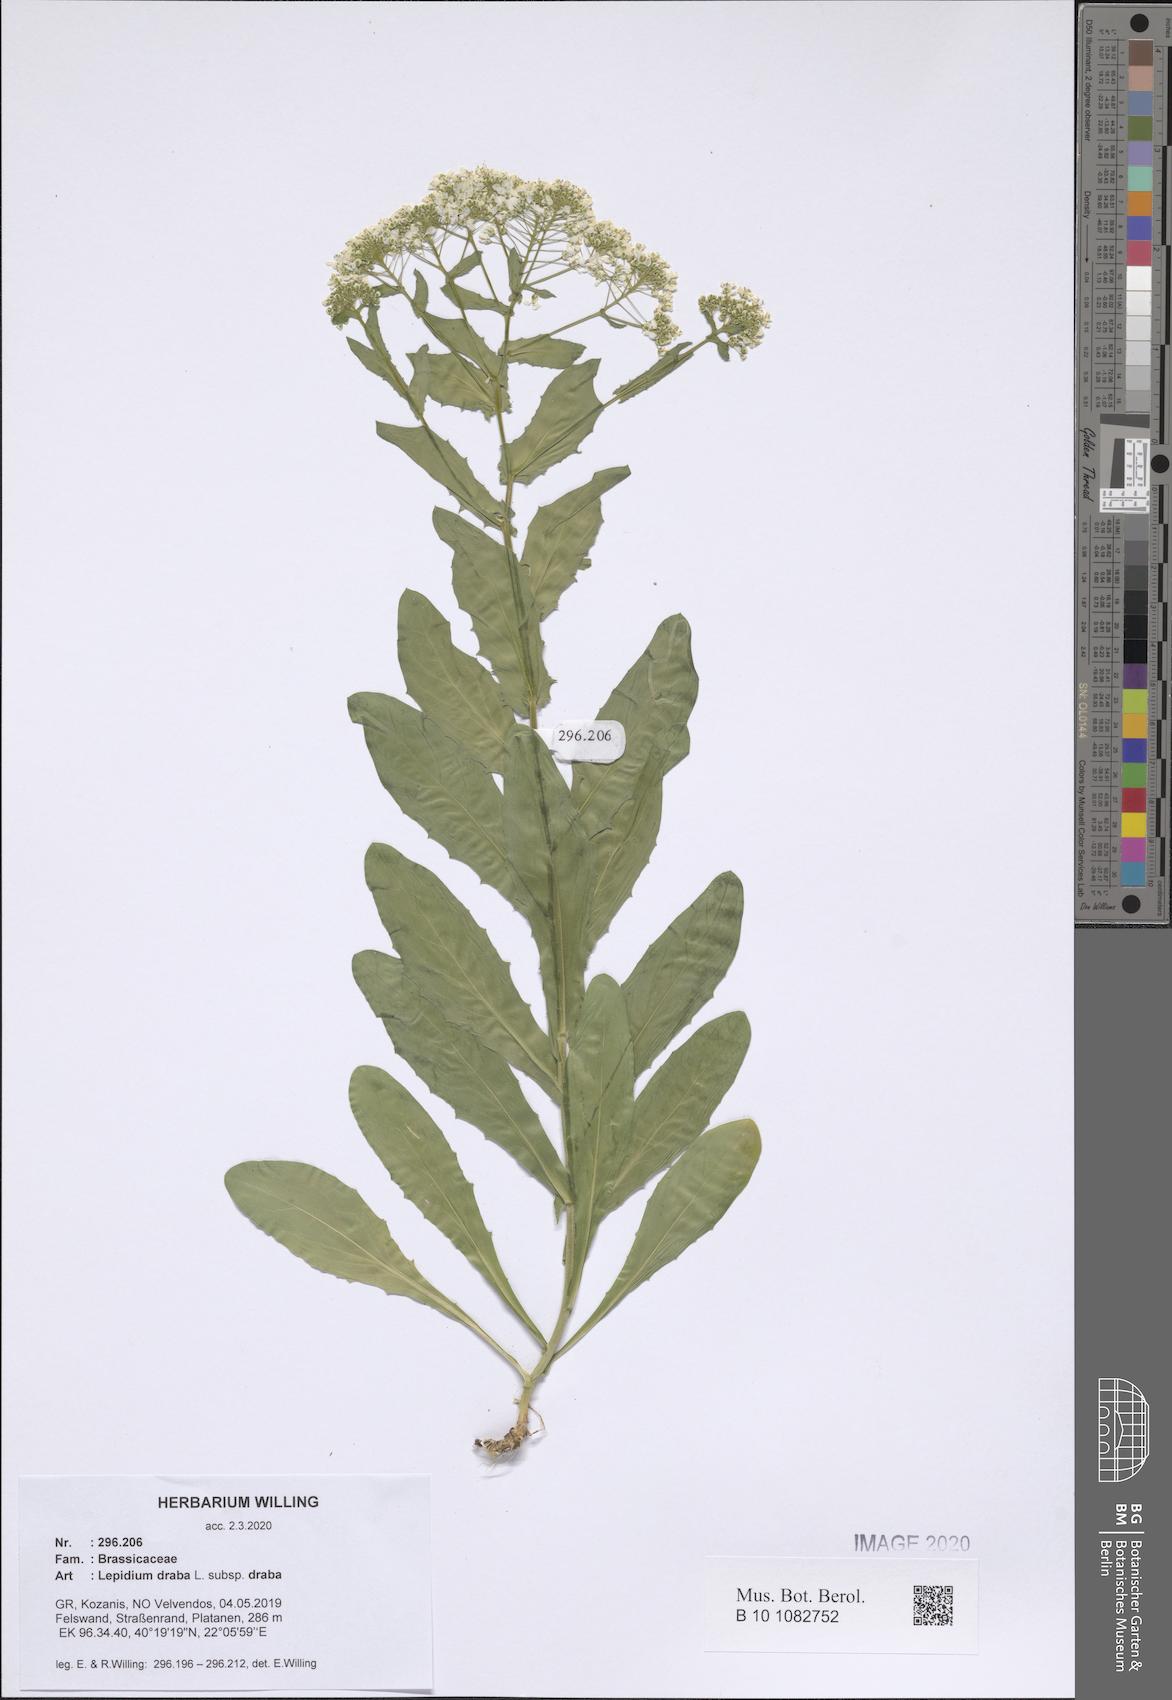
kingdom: Plantae
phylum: Tracheophyta
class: Magnoliopsida
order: Brassicales
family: Brassicaceae
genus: Lepidium
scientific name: Lepidium draba
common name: Hoary cress
